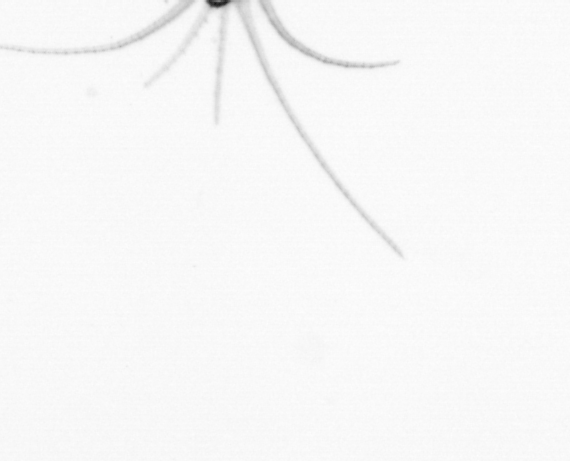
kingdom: Animalia
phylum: Arthropoda
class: Copepoda
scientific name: Copepoda
